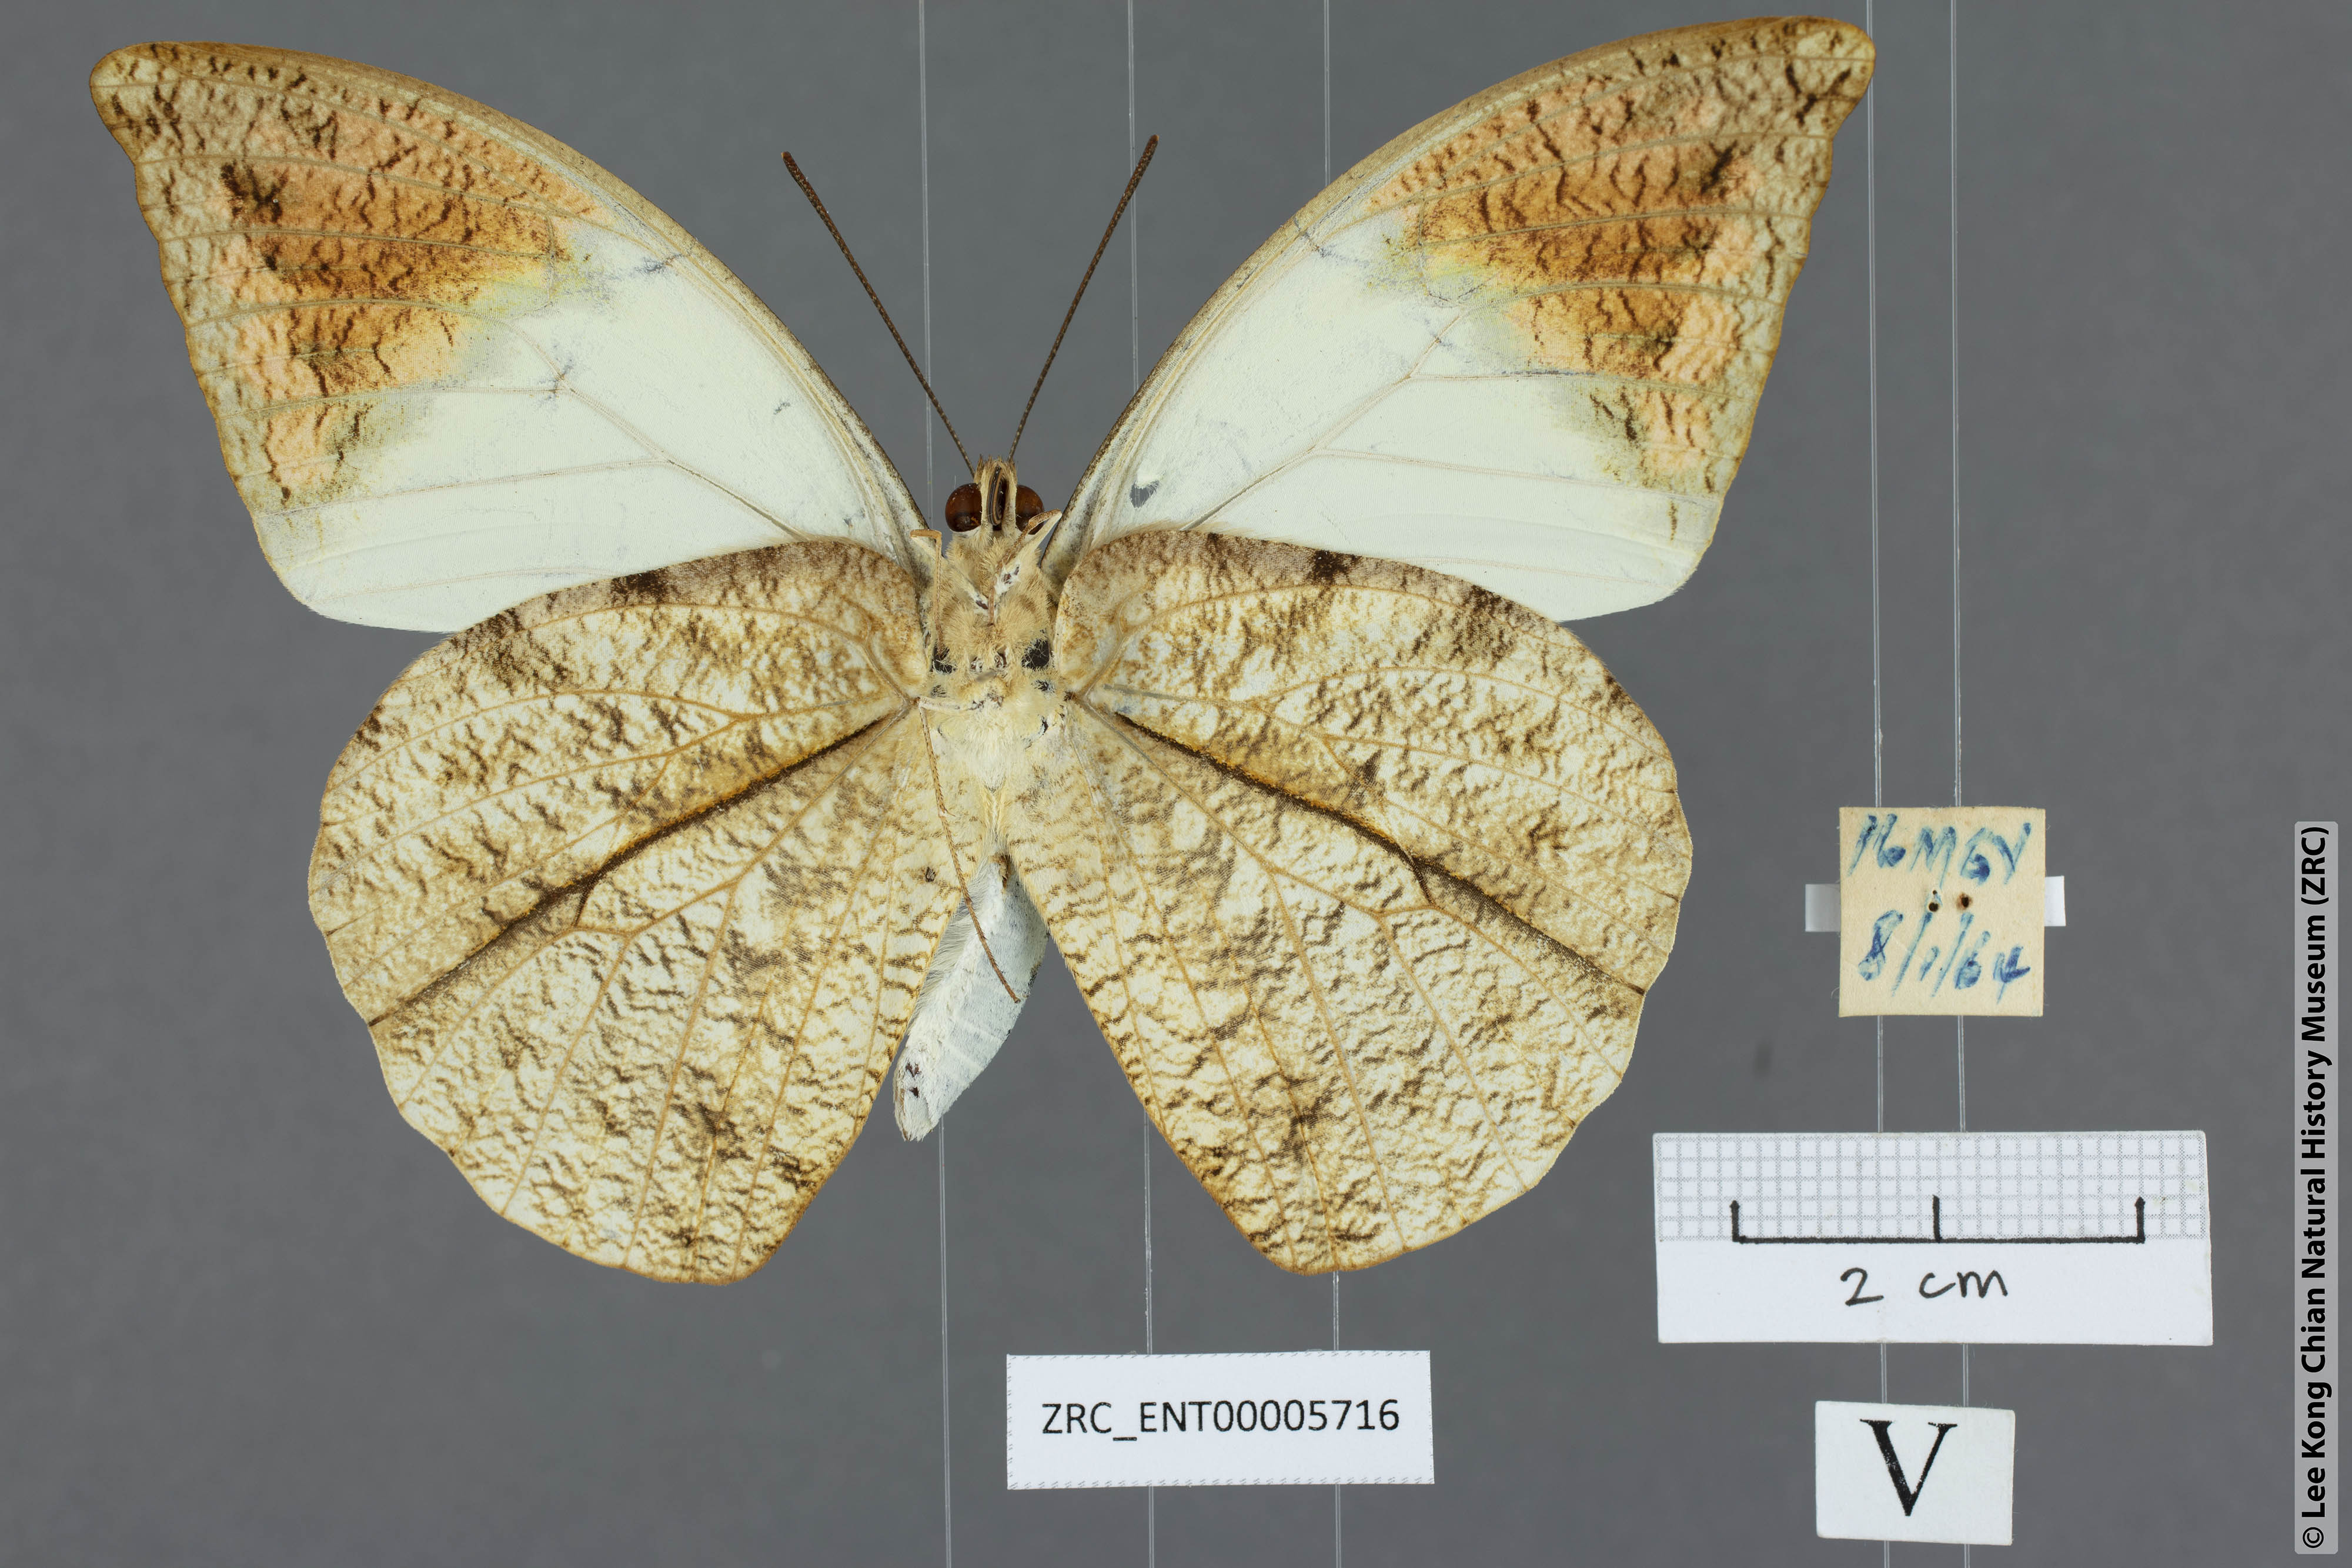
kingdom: Animalia
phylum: Arthropoda
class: Insecta
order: Lepidoptera
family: Pieridae
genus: Hebomoia
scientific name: Hebomoia glaucippe
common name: Great orange tip
